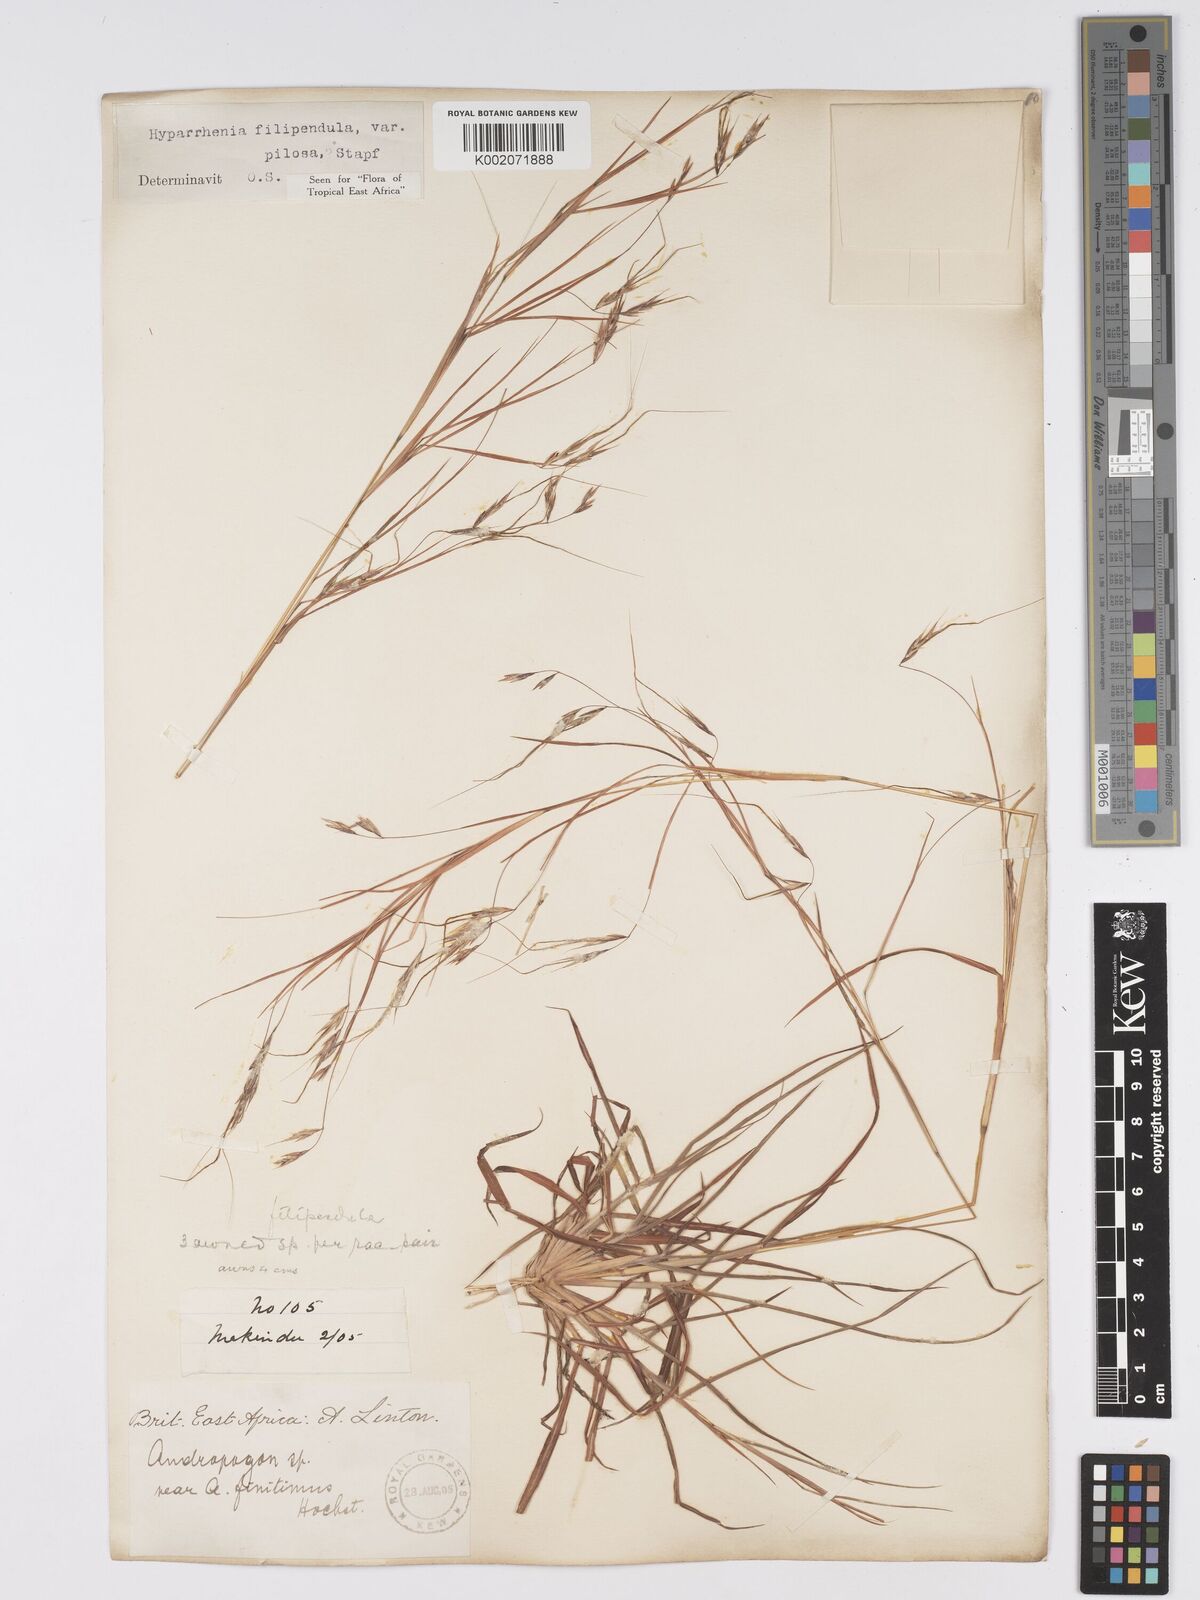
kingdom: Plantae
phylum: Tracheophyta
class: Liliopsida
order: Poales
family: Poaceae
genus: Hyparrhenia
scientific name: Hyparrhenia filipendula
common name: Tambookie grass
